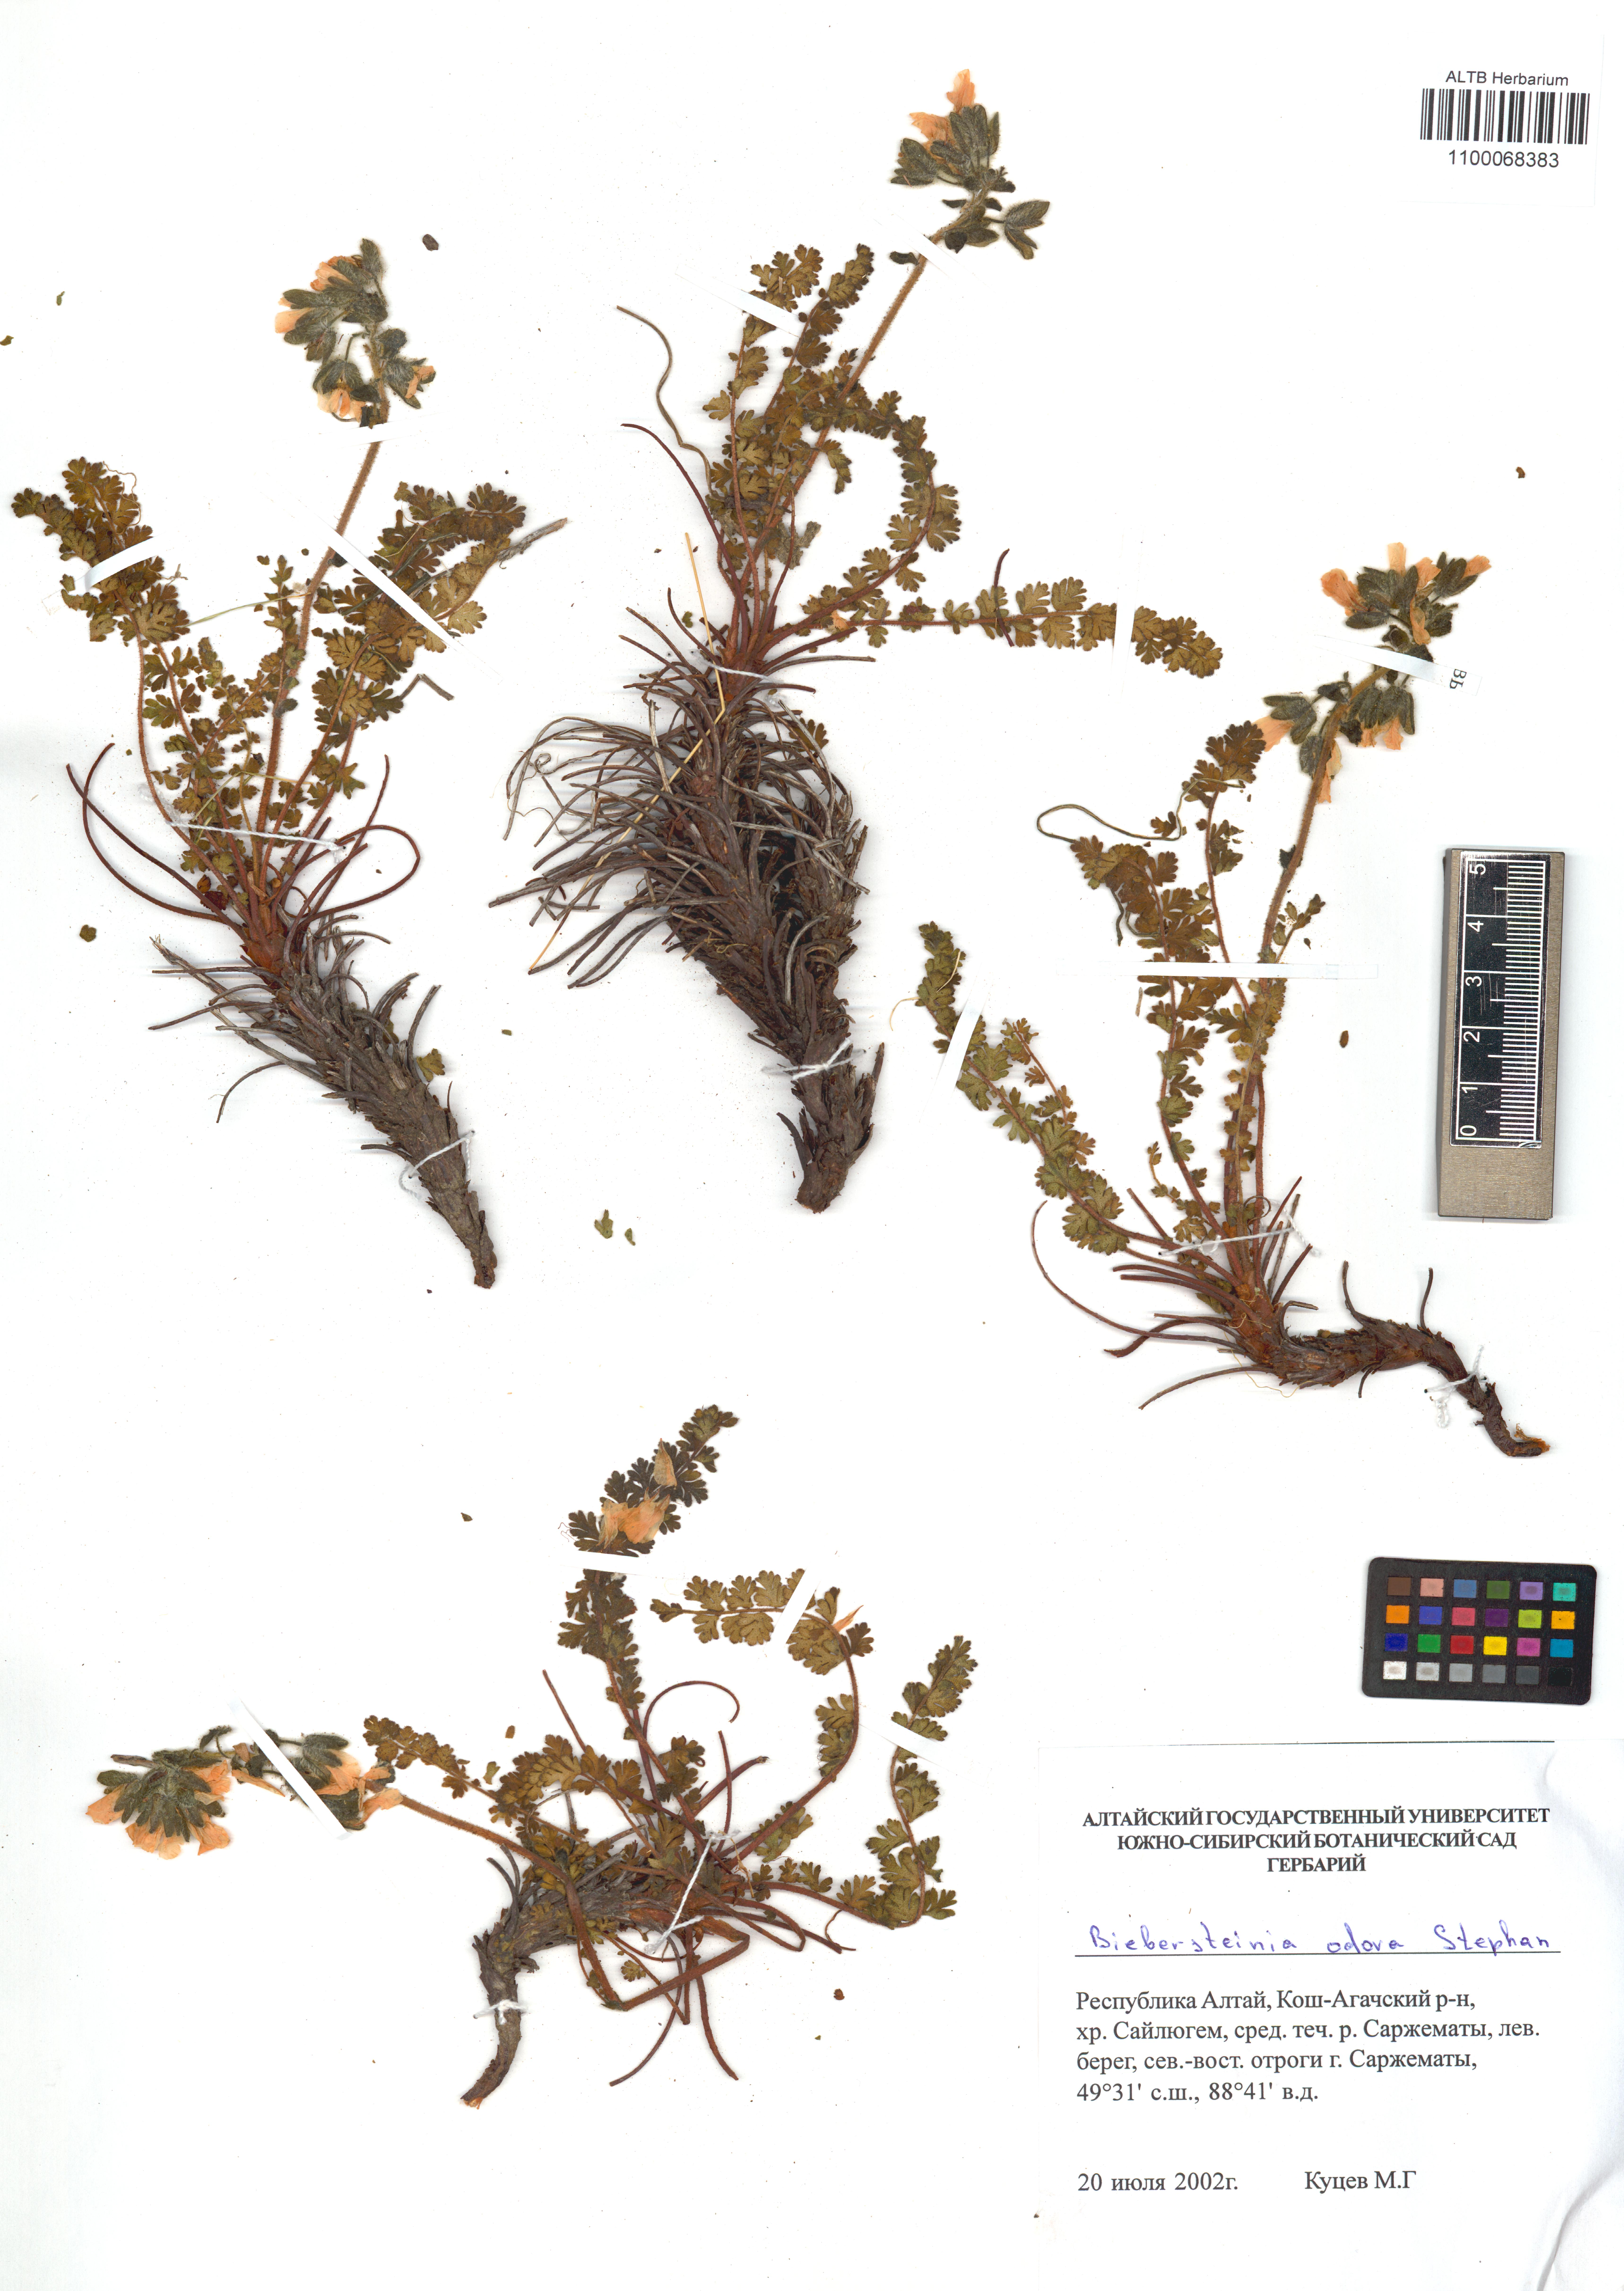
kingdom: Plantae
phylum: Tracheophyta
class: Magnoliopsida
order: Sapindales
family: Biebersteiniaceae
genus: Biebersteinia
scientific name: Biebersteinia odora
